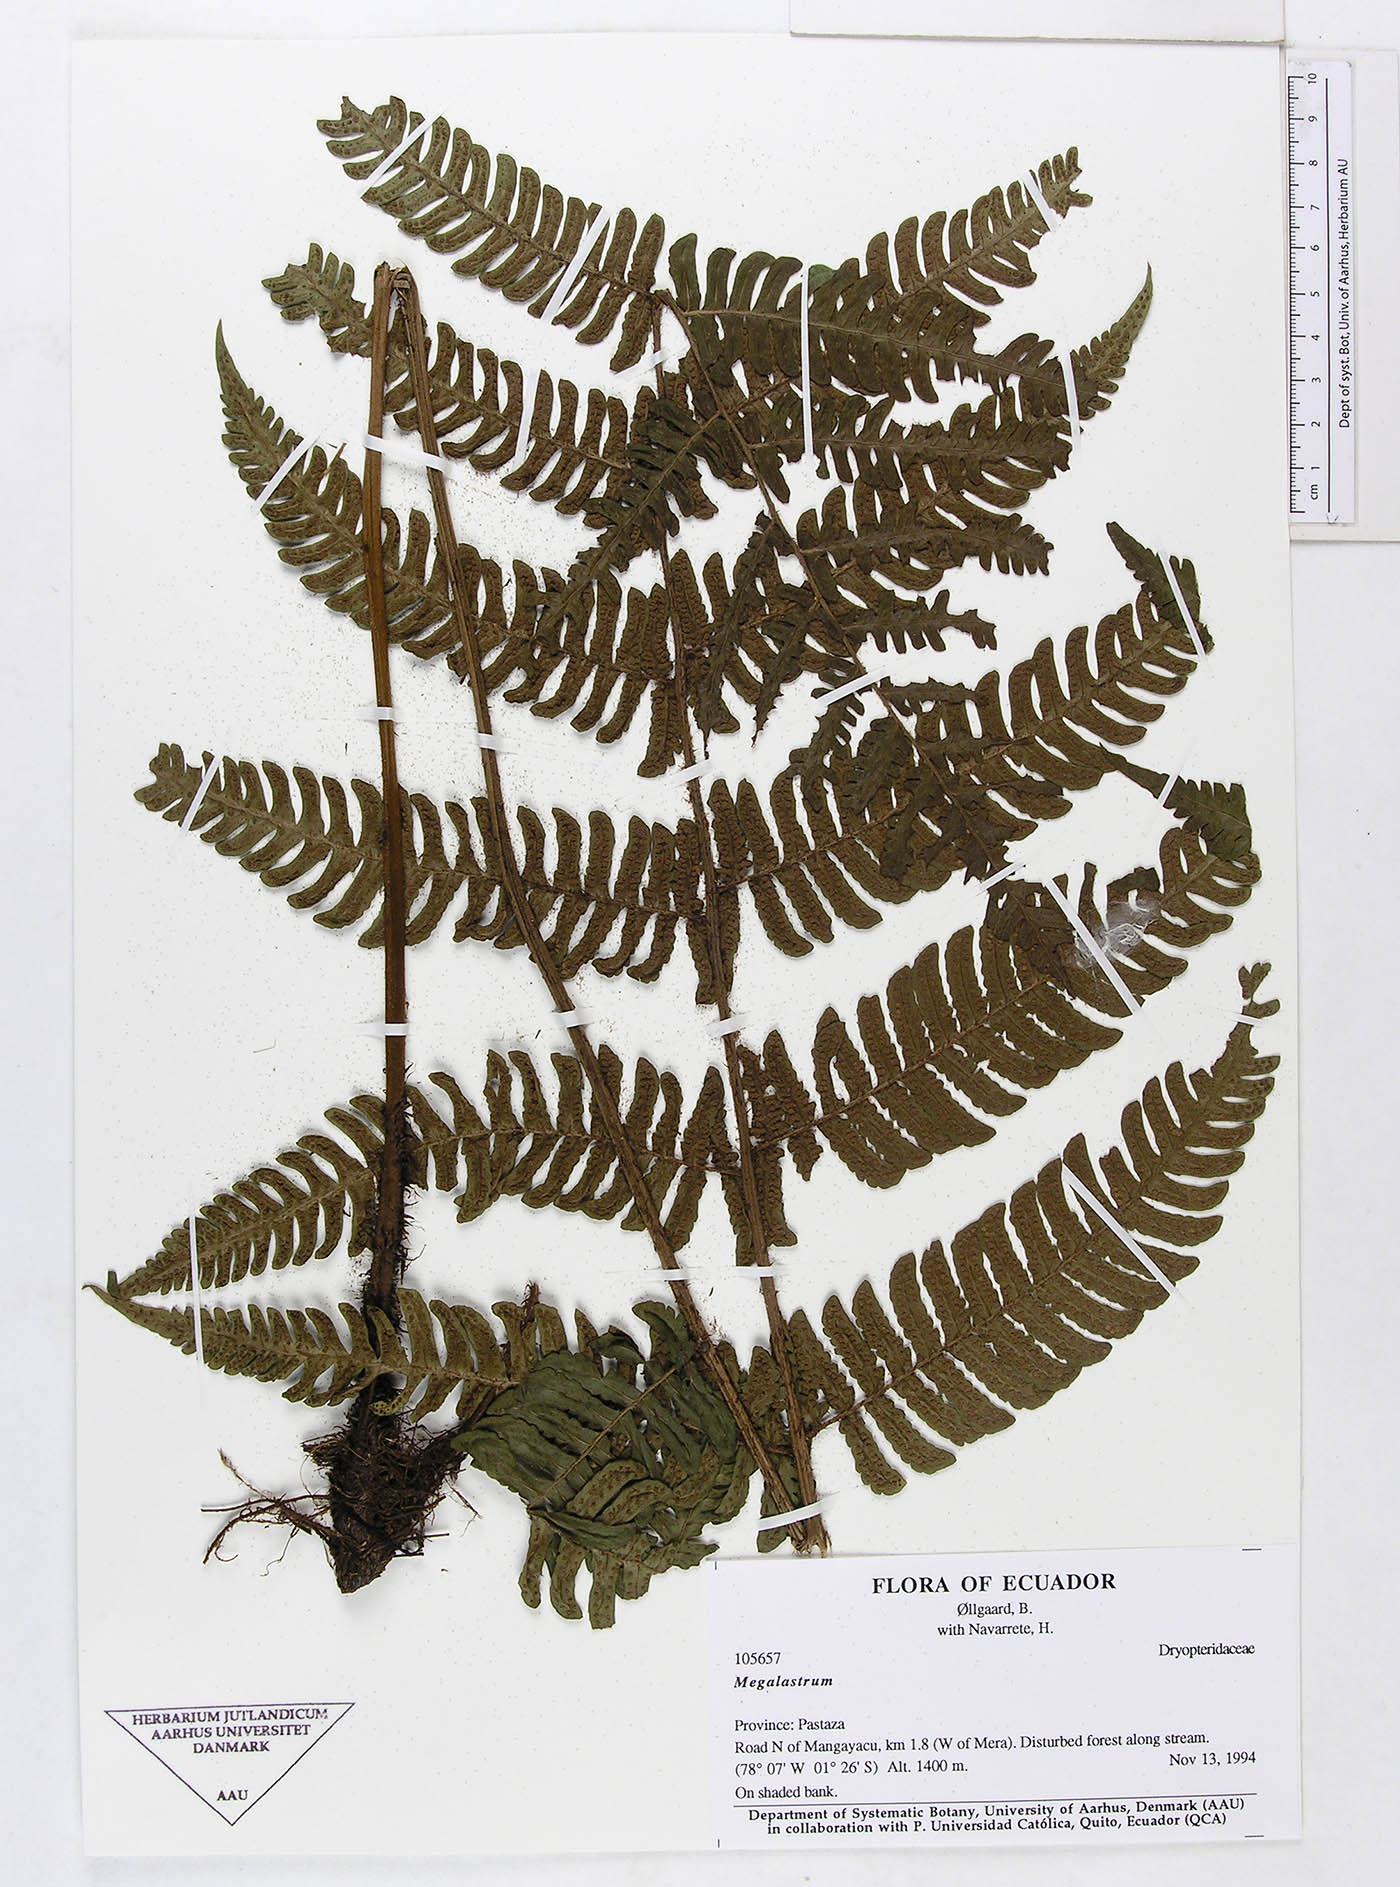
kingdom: Plantae
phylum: Tracheophyta
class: Polypodiopsida
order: Polypodiales
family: Dryopteridaceae
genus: Megalastrum
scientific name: Megalastrum biseriale
